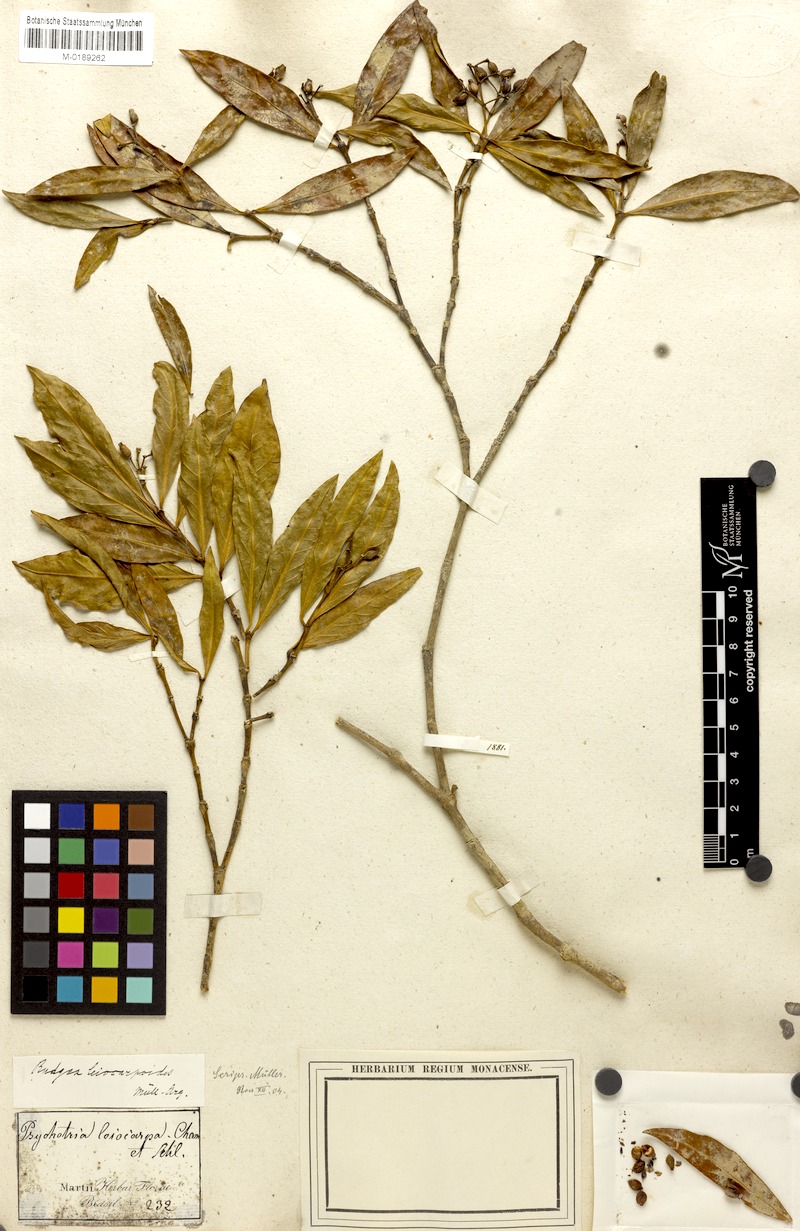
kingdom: Plantae
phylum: Tracheophyta
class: Magnoliopsida
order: Gentianales
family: Rubiaceae
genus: Rudgea
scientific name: Rudgea coronata
